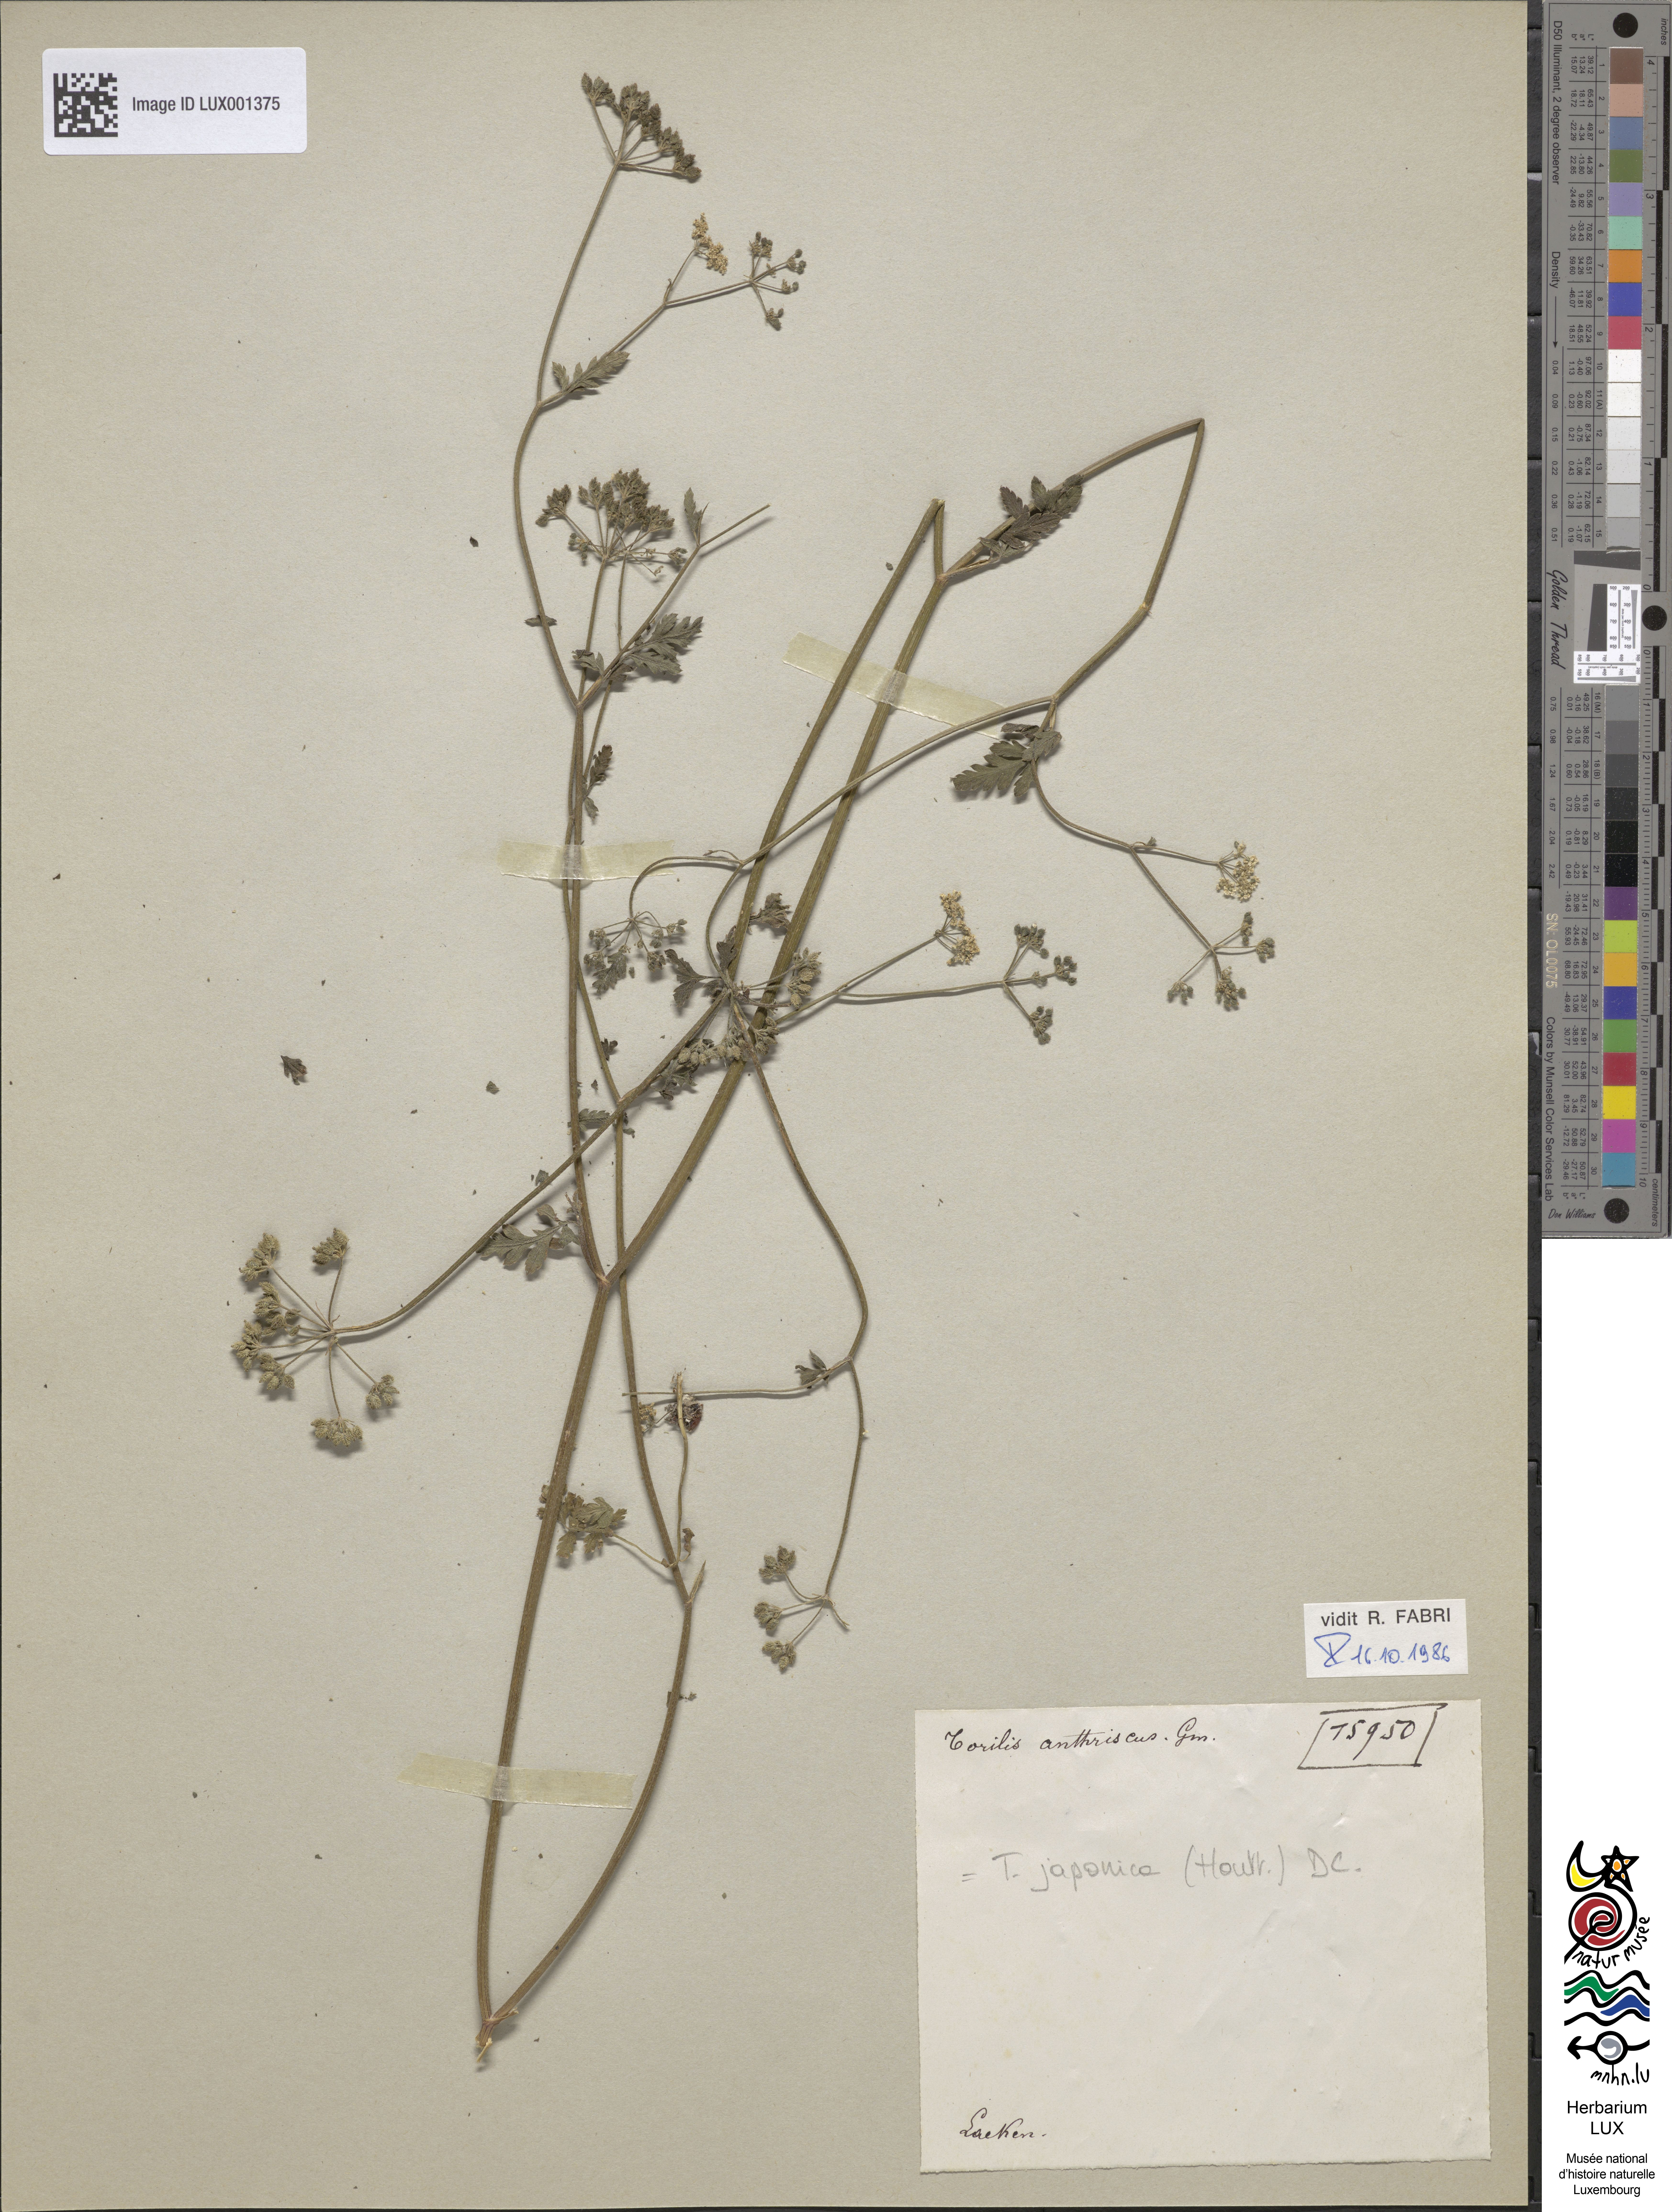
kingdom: Plantae
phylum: Tracheophyta
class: Magnoliopsida
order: Apiales
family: Apiaceae
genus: Torilis
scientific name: Torilis japonica
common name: Upright hedge-parsley
